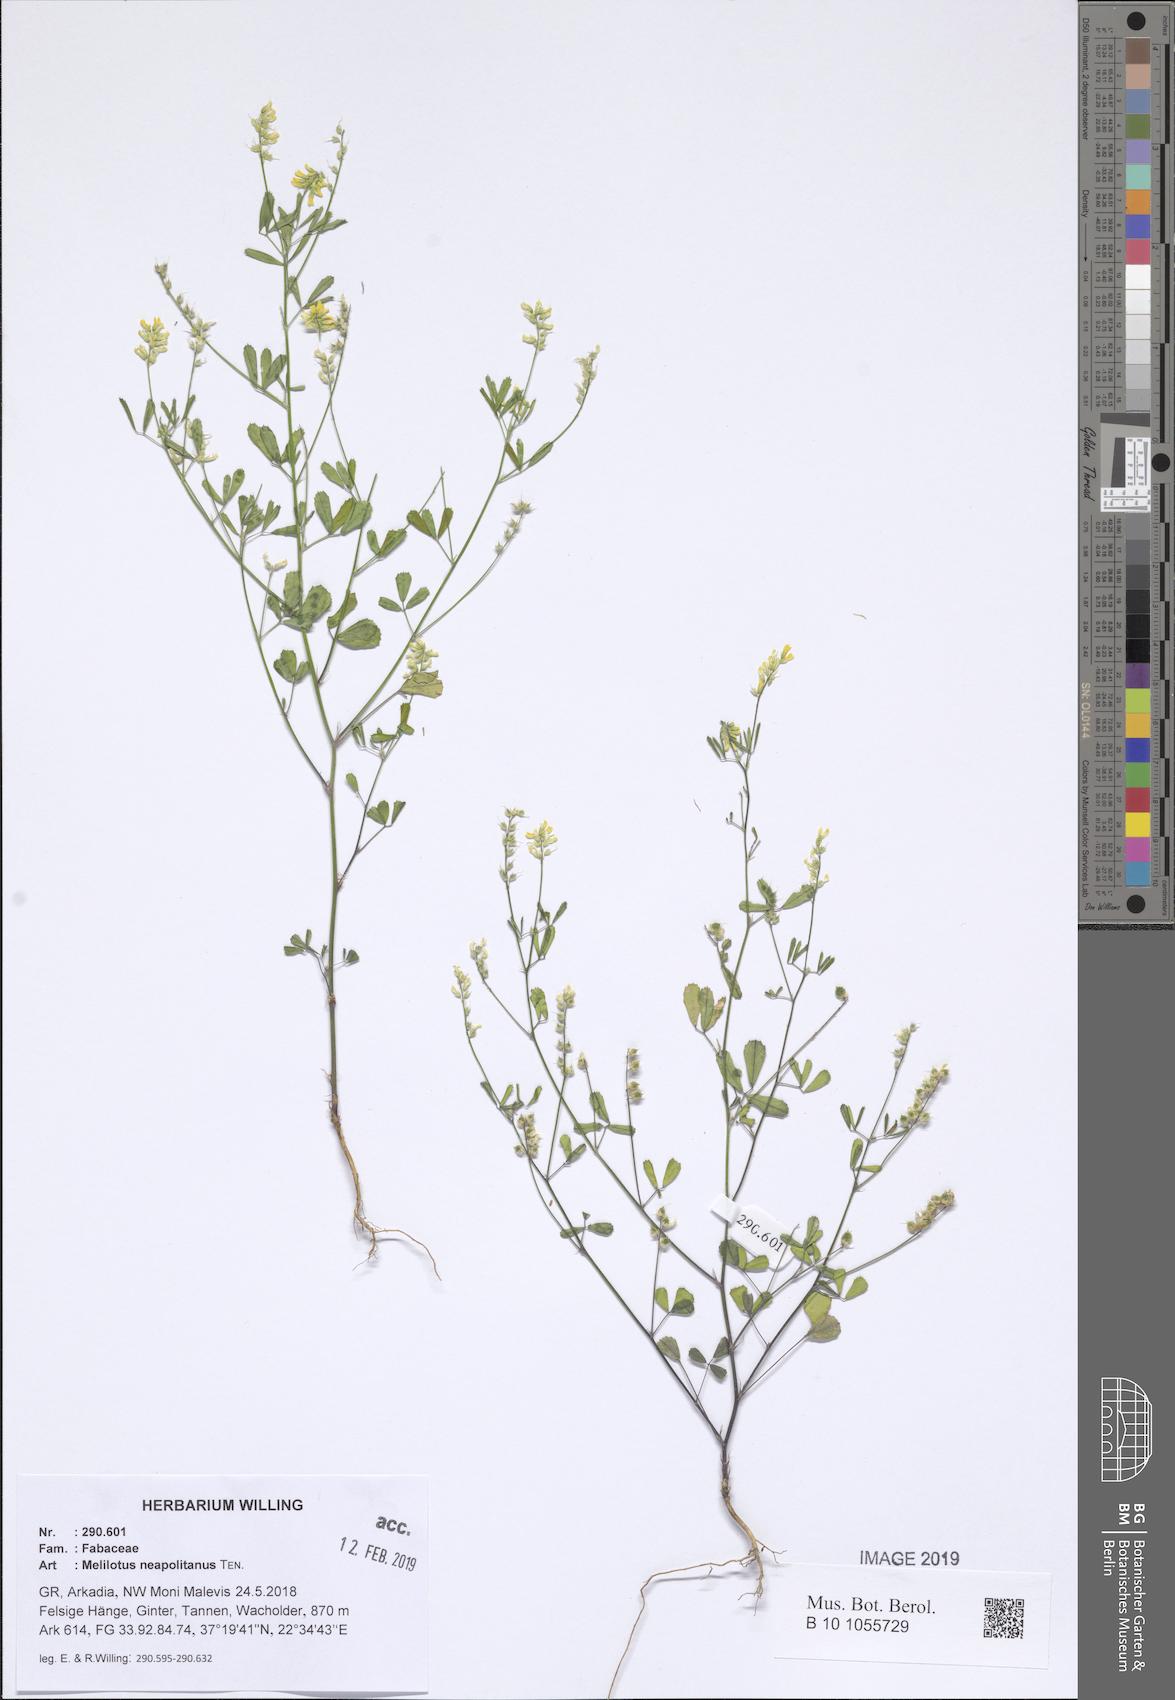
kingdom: Plantae
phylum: Tracheophyta
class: Magnoliopsida
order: Fabales
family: Fabaceae
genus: Melilotus
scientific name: Melilotus neapolitanus
